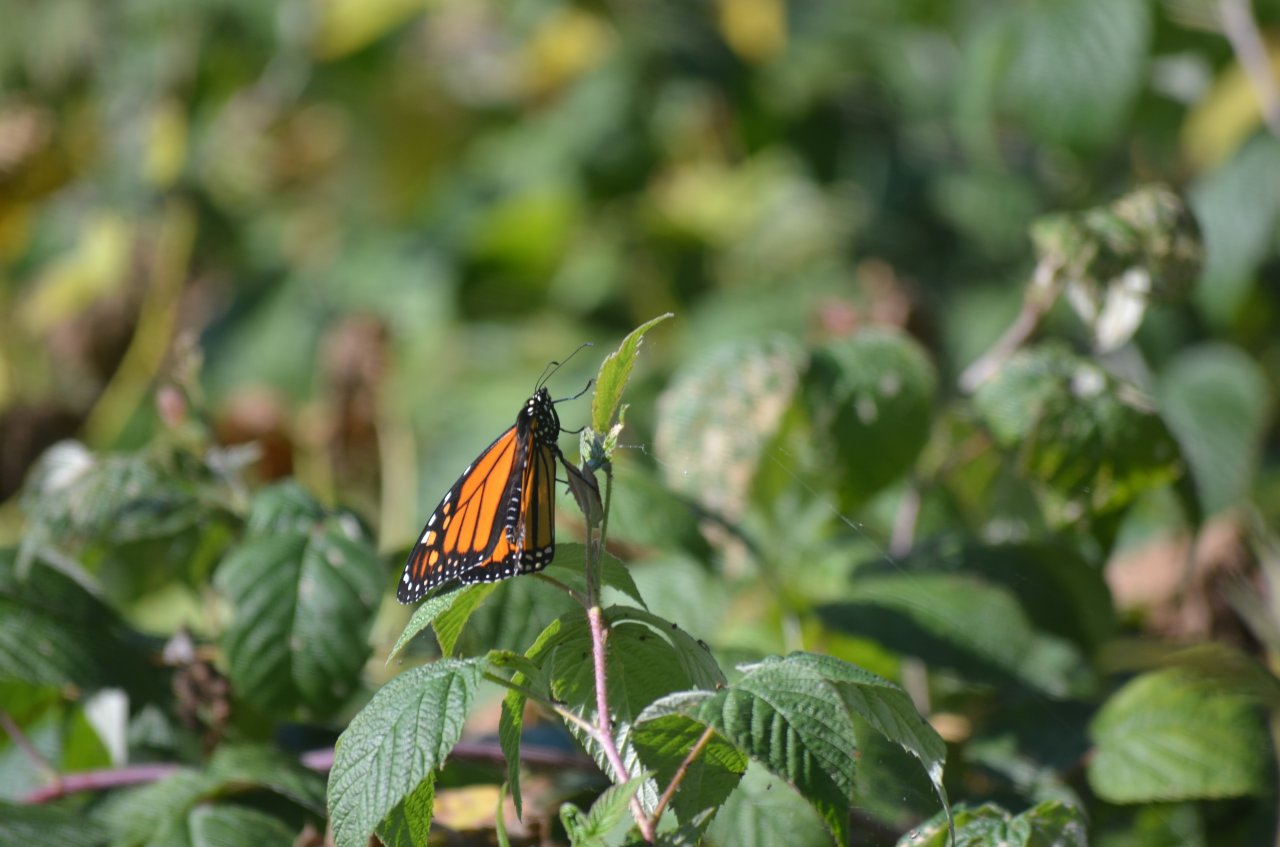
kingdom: Animalia
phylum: Arthropoda
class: Insecta
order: Lepidoptera
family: Nymphalidae
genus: Danaus
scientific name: Danaus plexippus
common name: Monarch
